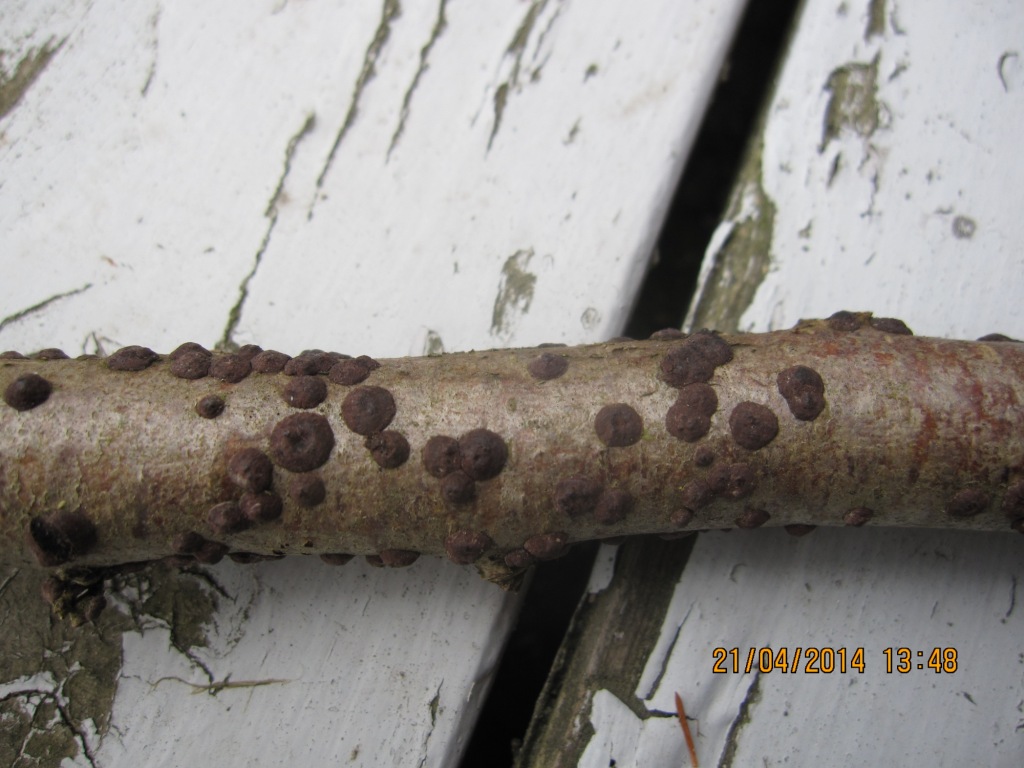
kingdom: Fungi
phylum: Ascomycota
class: Sordariomycetes
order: Xylariales
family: Hypoxylaceae
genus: Hypoxylon
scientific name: Hypoxylon fuscum
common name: kegleformet kulbær
